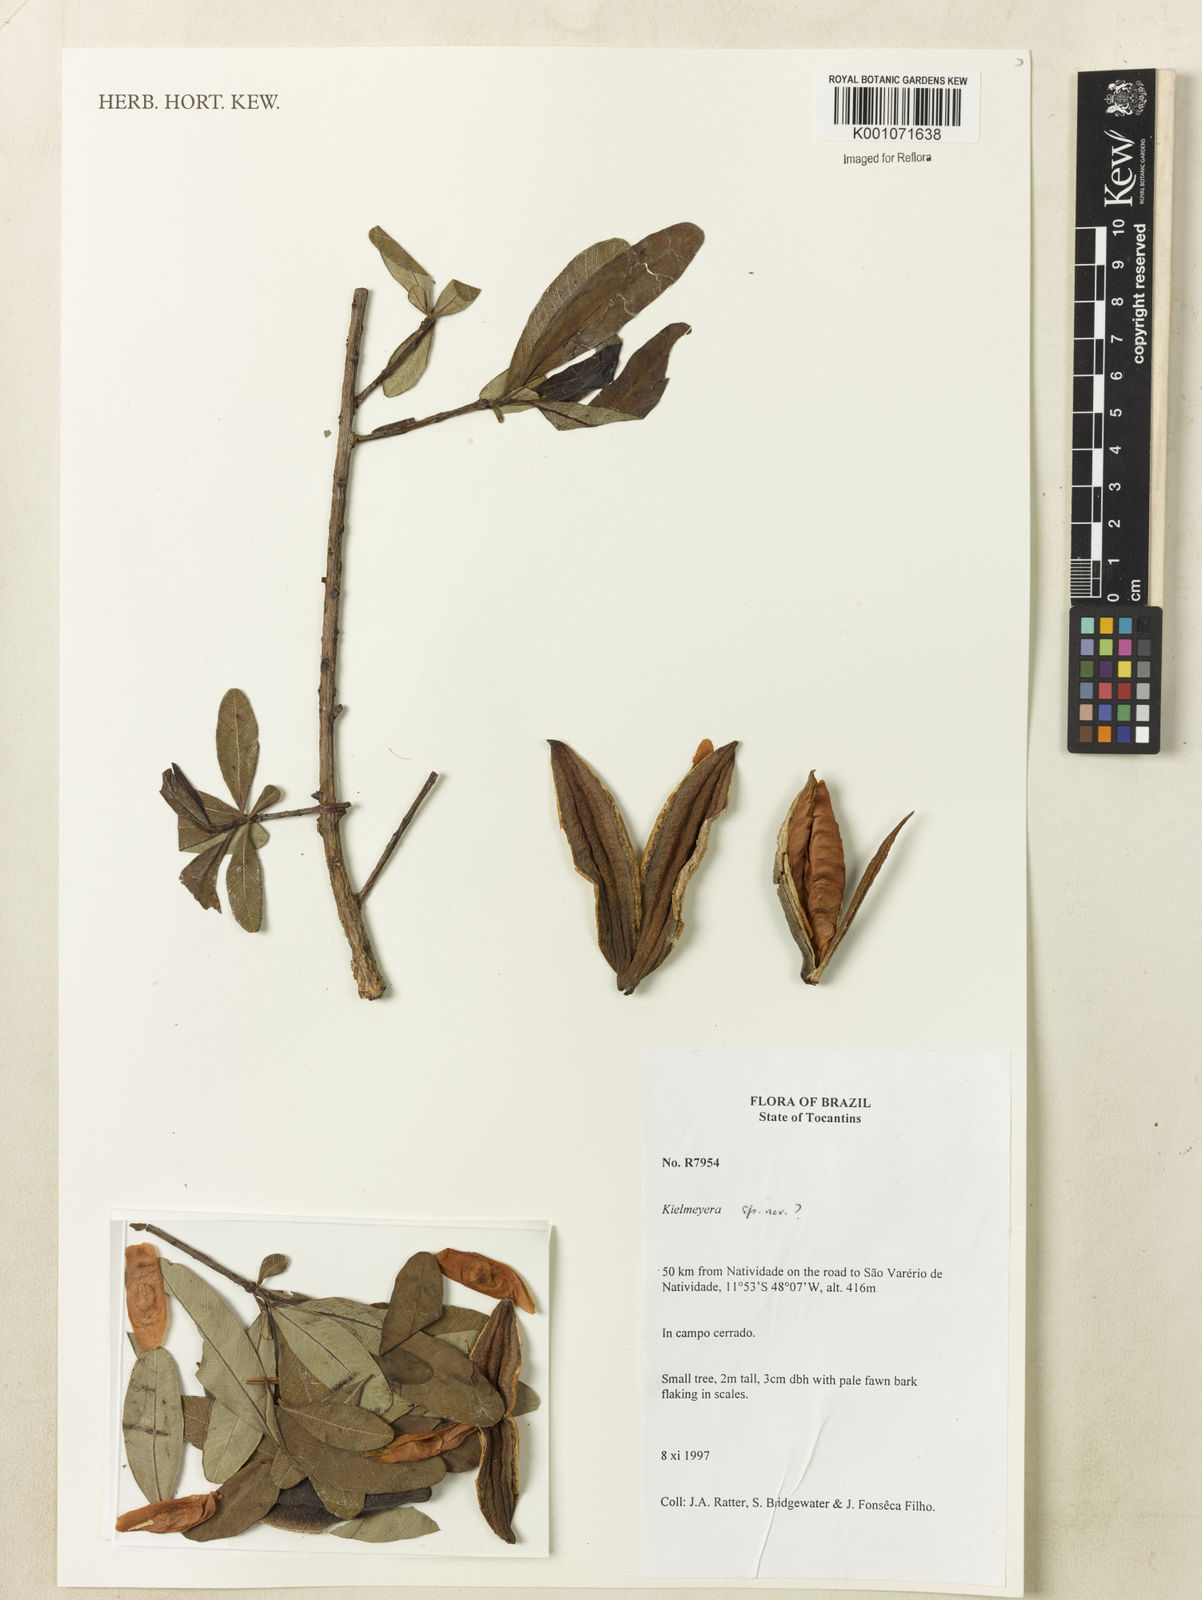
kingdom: Plantae
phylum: Tracheophyta
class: Magnoliopsida
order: Malpighiales
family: Calophyllaceae
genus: Kielmeyera
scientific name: Kielmeyera
